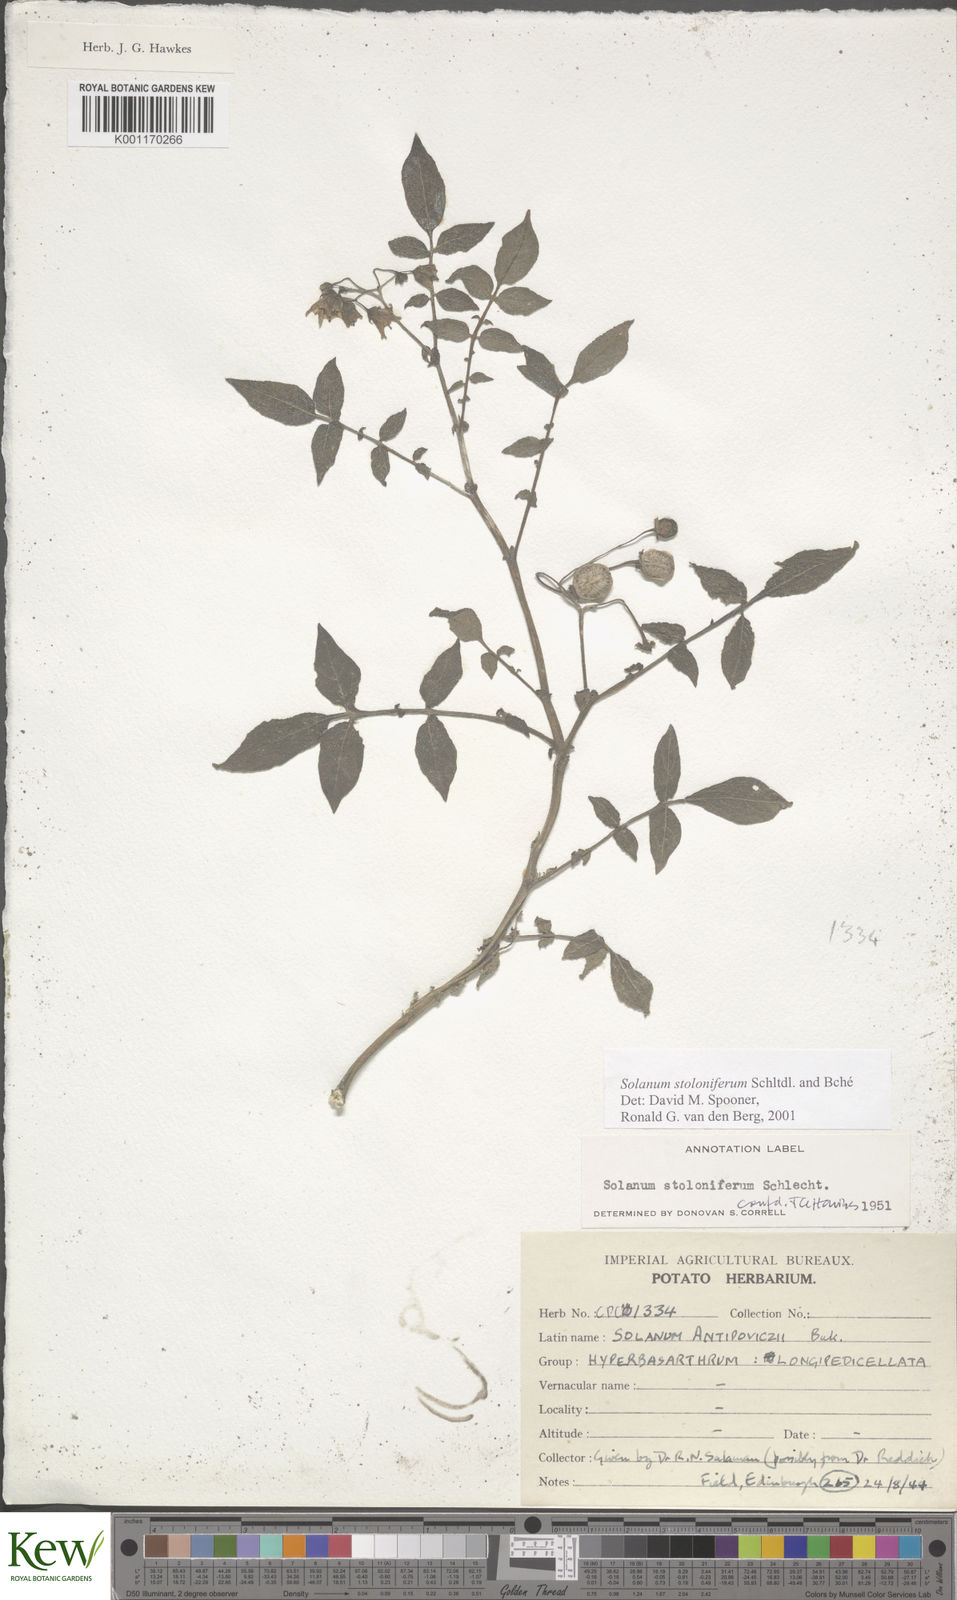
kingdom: Plantae
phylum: Tracheophyta
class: Magnoliopsida
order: Solanales
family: Solanaceae
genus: Solanum
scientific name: Solanum stoloniferum
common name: Fendler's nighshade
